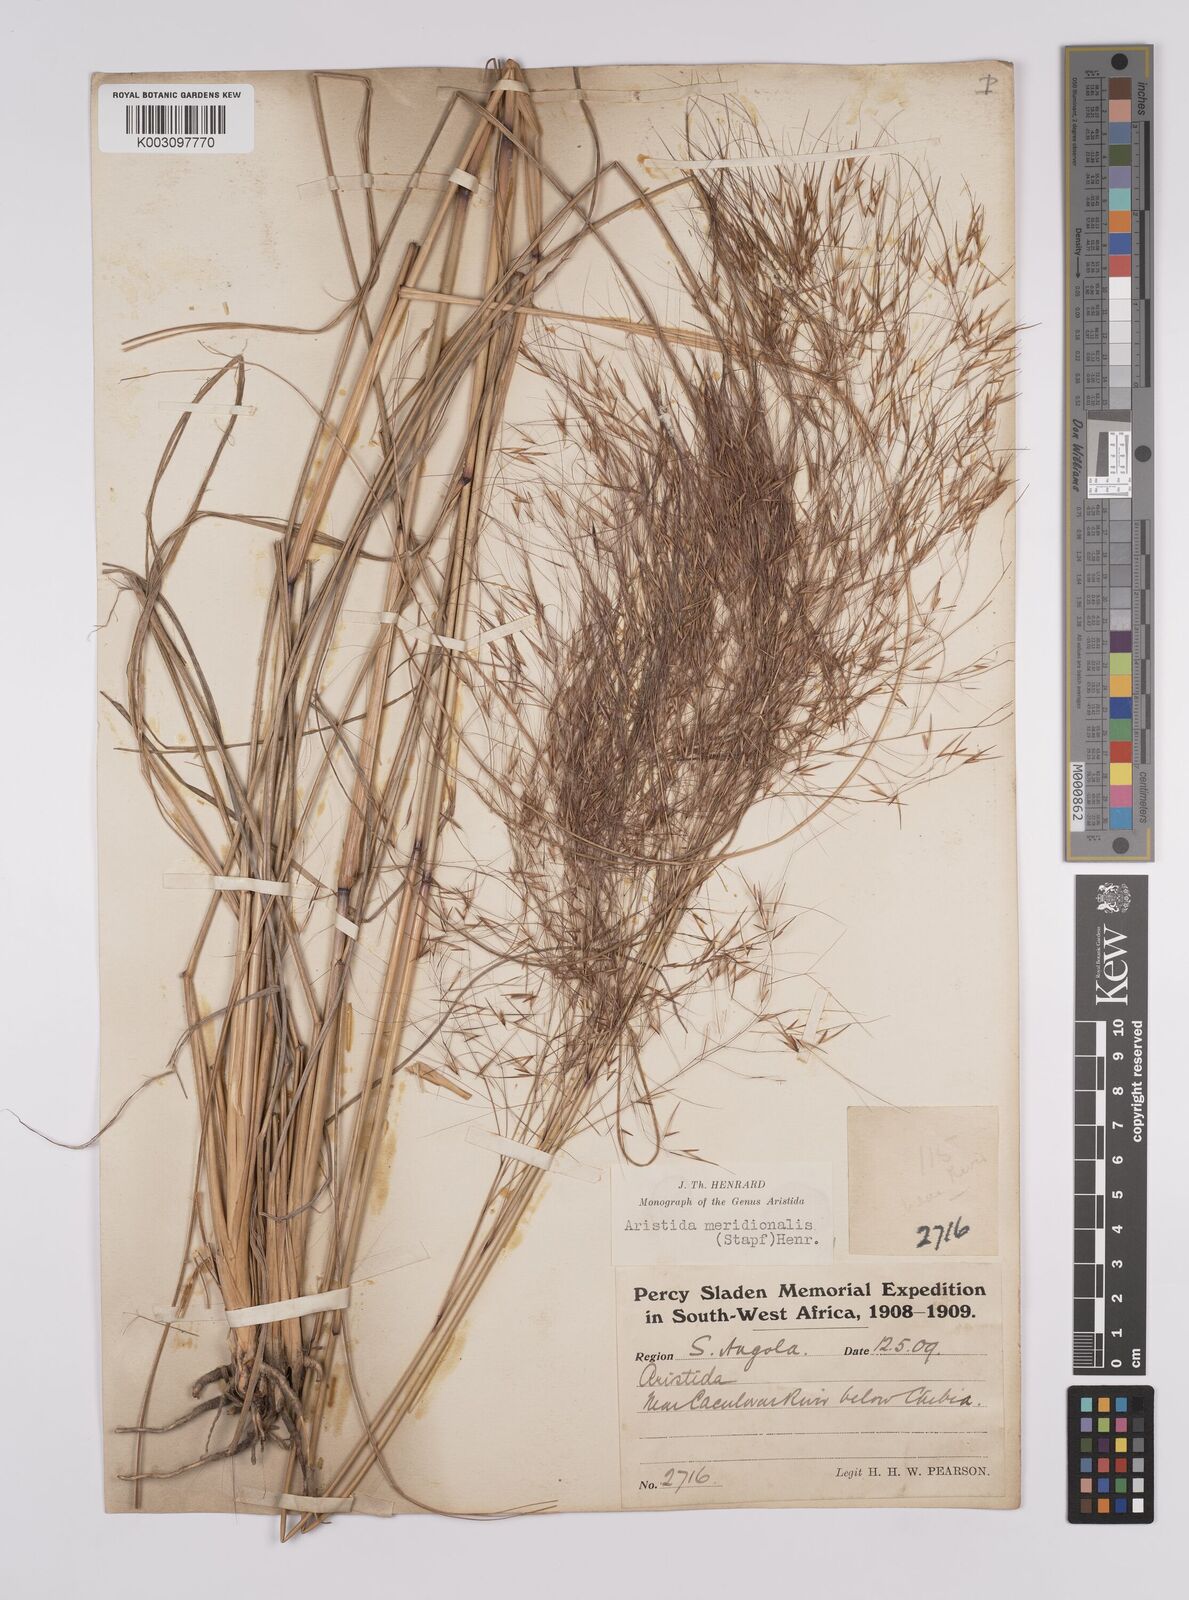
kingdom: Plantae
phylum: Tracheophyta
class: Liliopsida
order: Poales
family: Poaceae
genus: Aristida
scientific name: Aristida meridionalis
